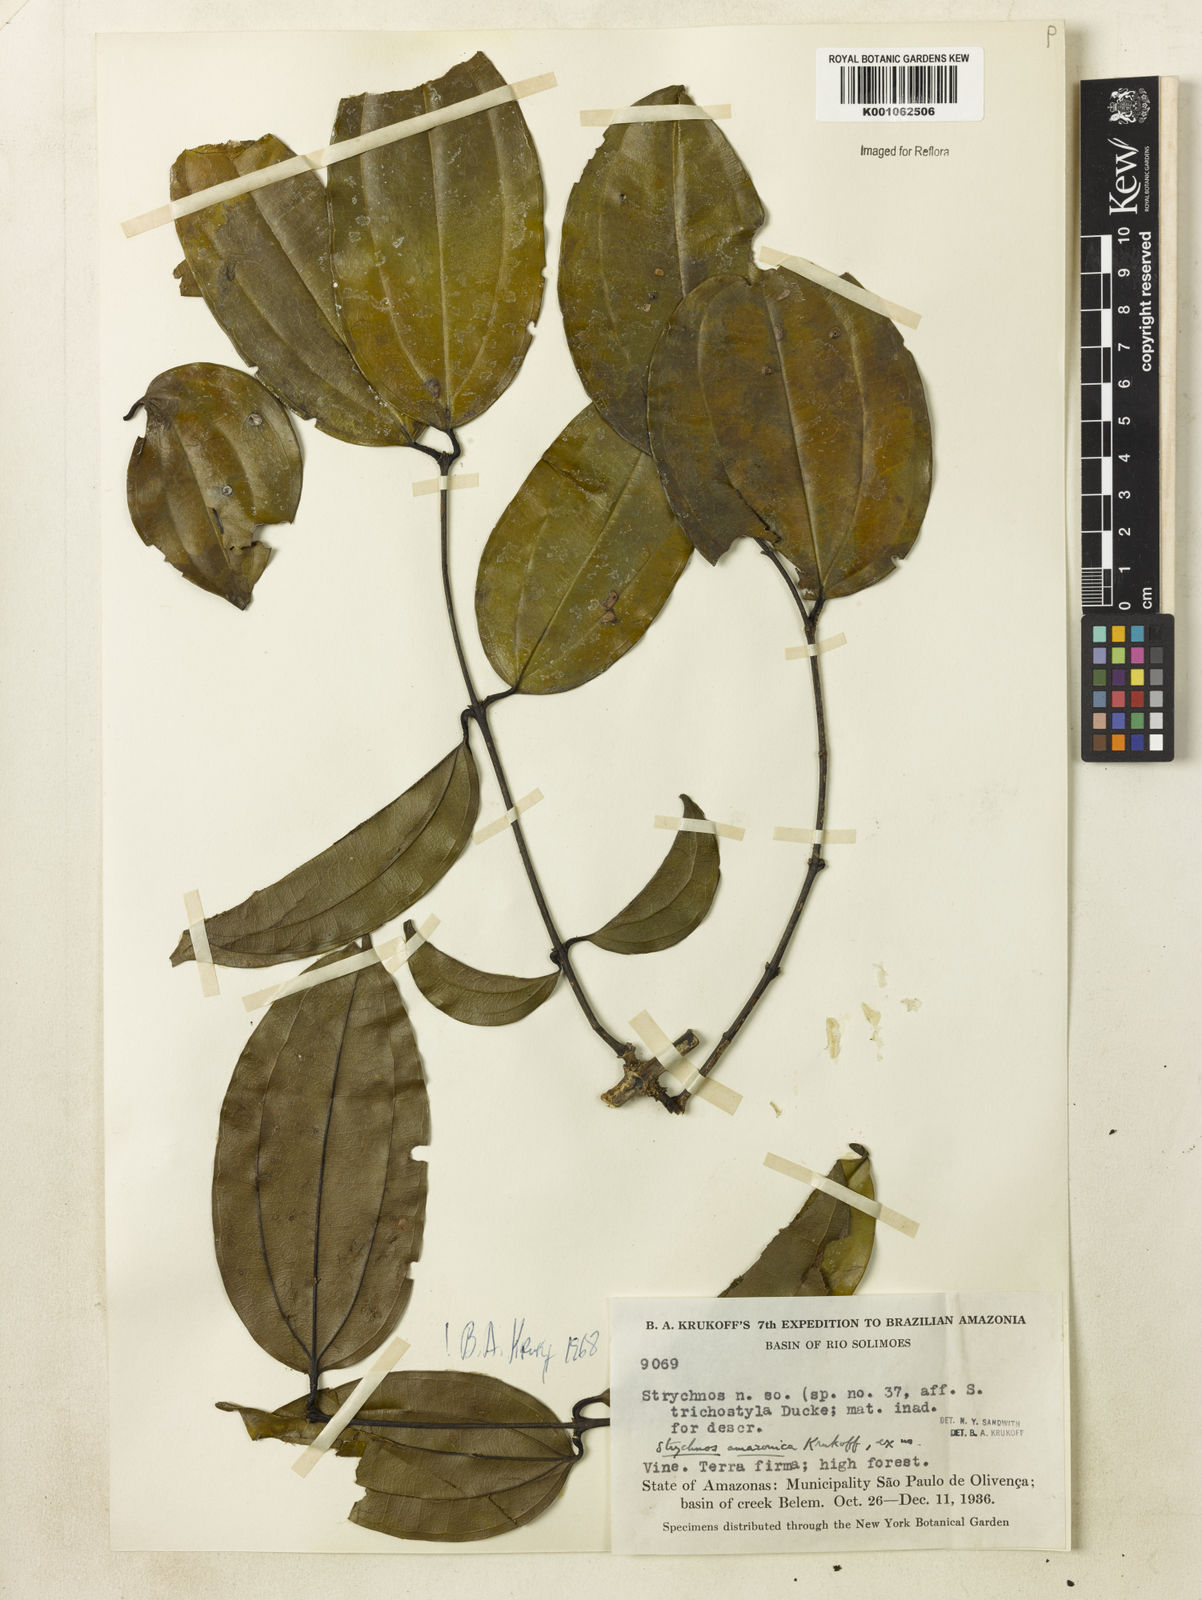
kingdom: Plantae
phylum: Tracheophyta
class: Magnoliopsida
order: Gentianales
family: Loganiaceae
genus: Strychnos
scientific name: Strychnos amazonica
